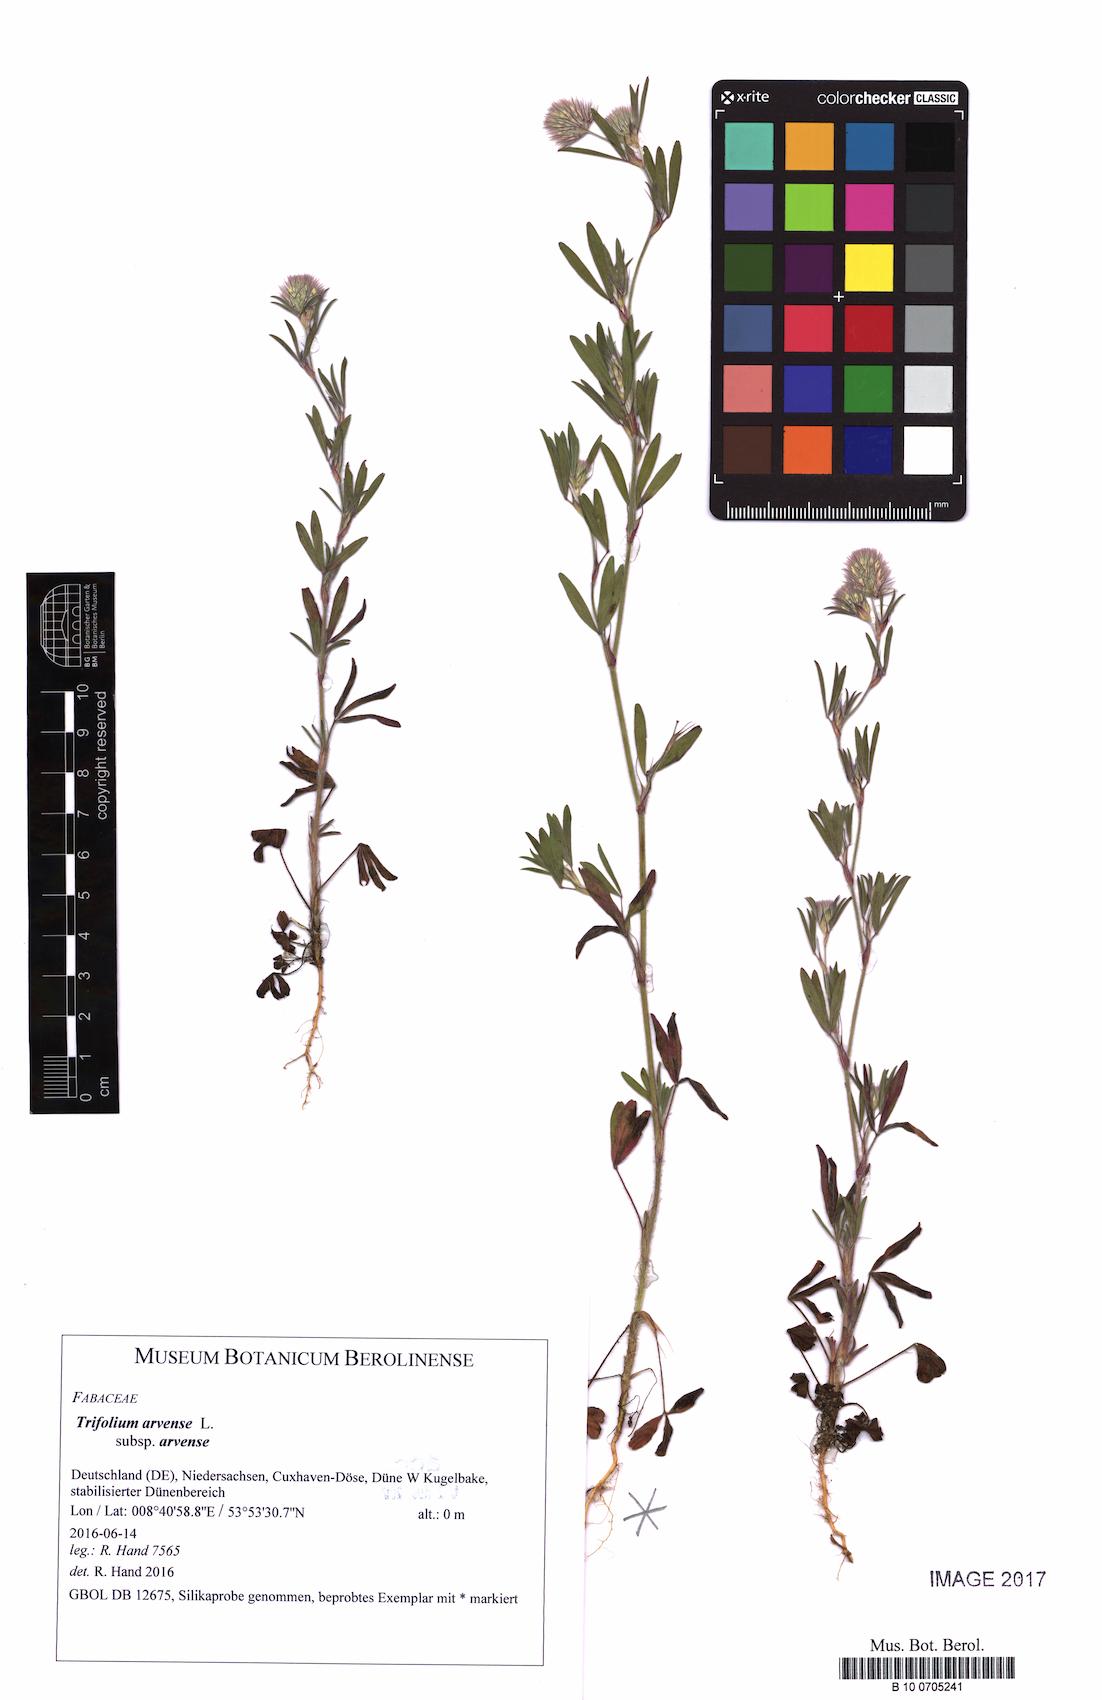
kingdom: Plantae
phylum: Tracheophyta
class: Magnoliopsida
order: Fabales
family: Fabaceae
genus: Trifolium
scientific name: Trifolium arvense
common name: Hare's-foot clover
